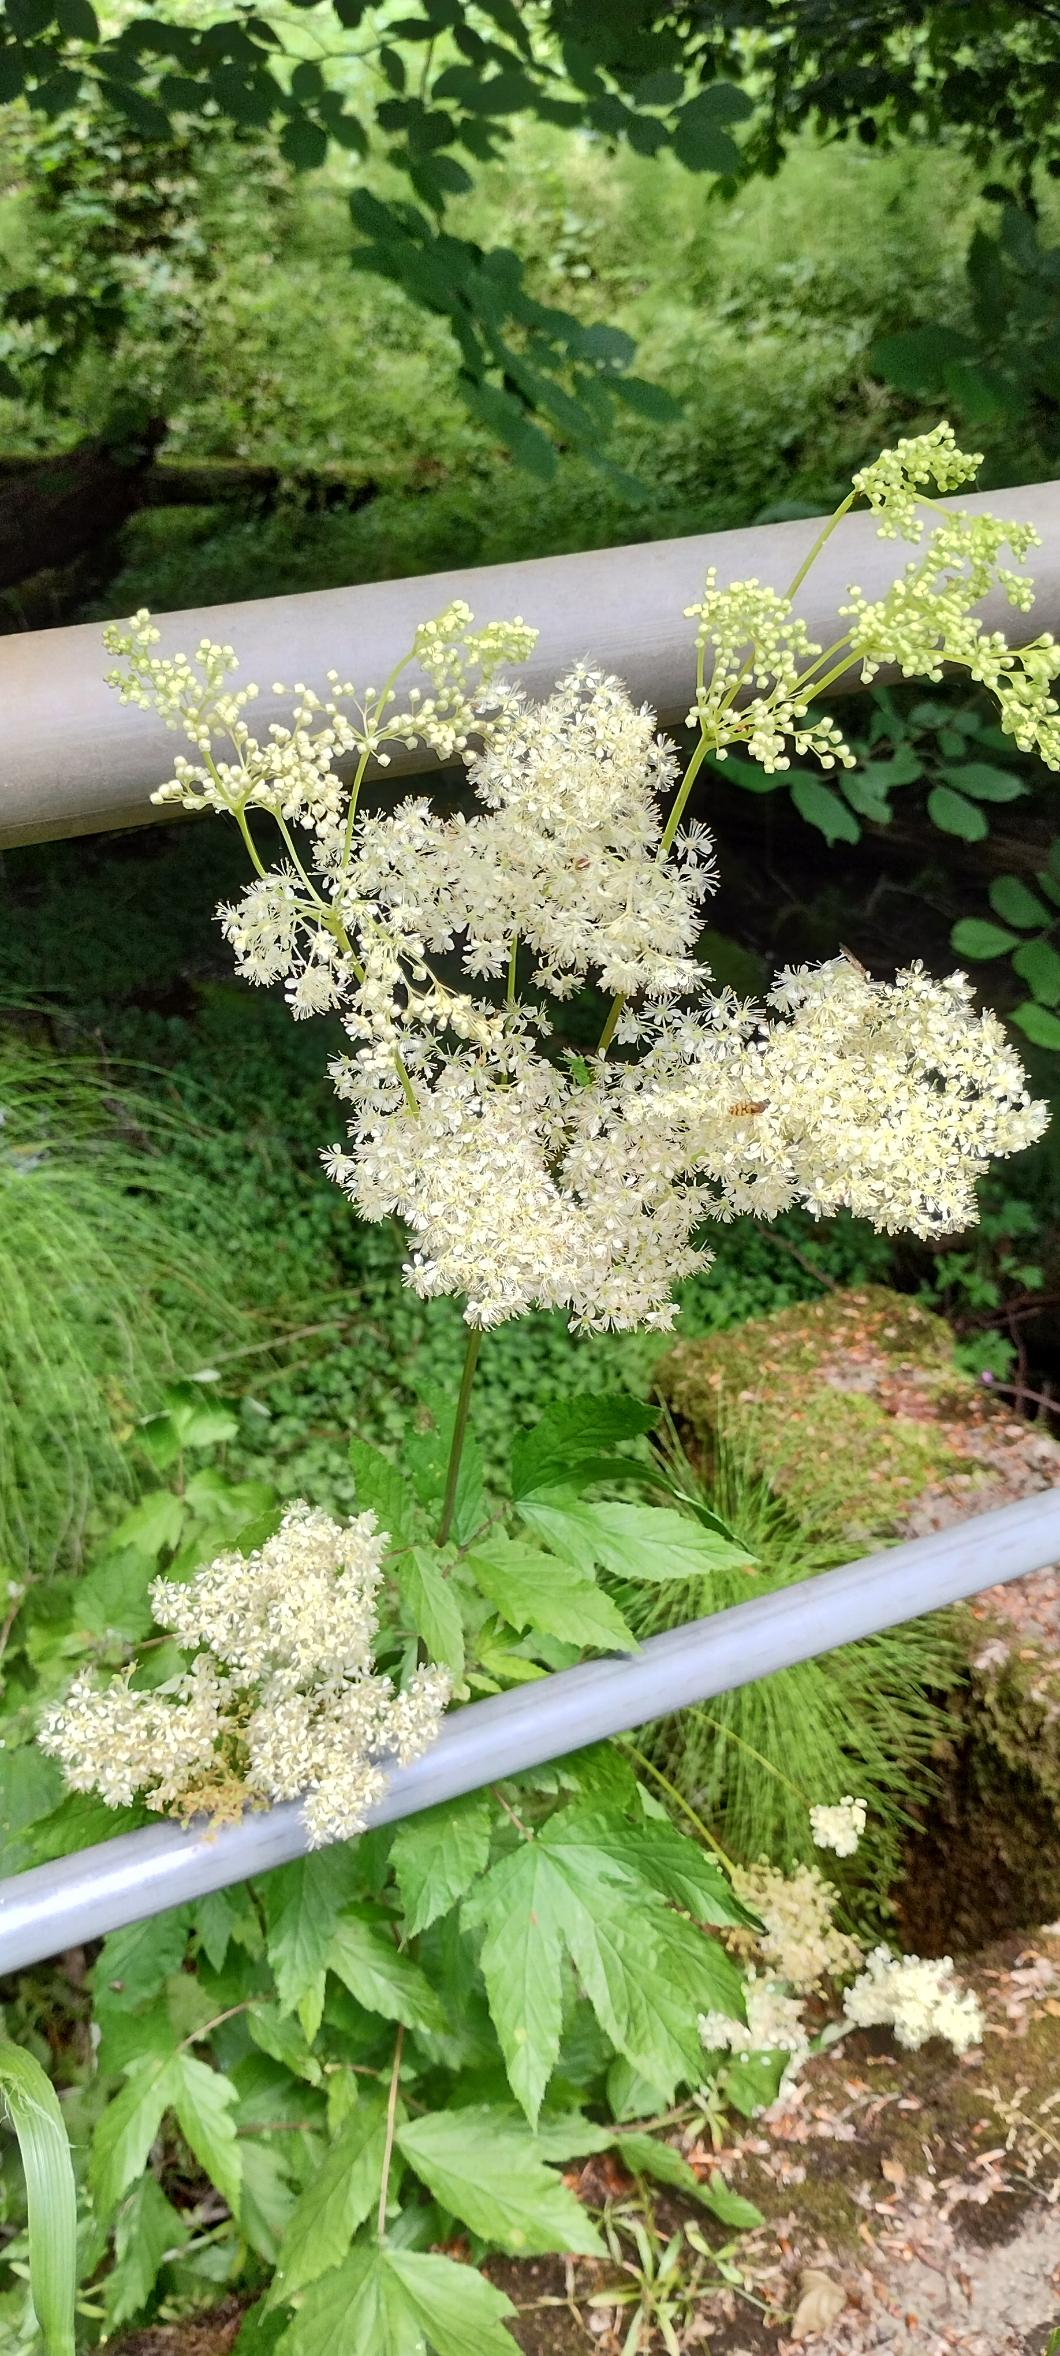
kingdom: Plantae
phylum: Tracheophyta
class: Magnoliopsida
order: Rosales
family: Rosaceae
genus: Filipendula
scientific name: Filipendula ulmaria
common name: Almindelig mjødurt
